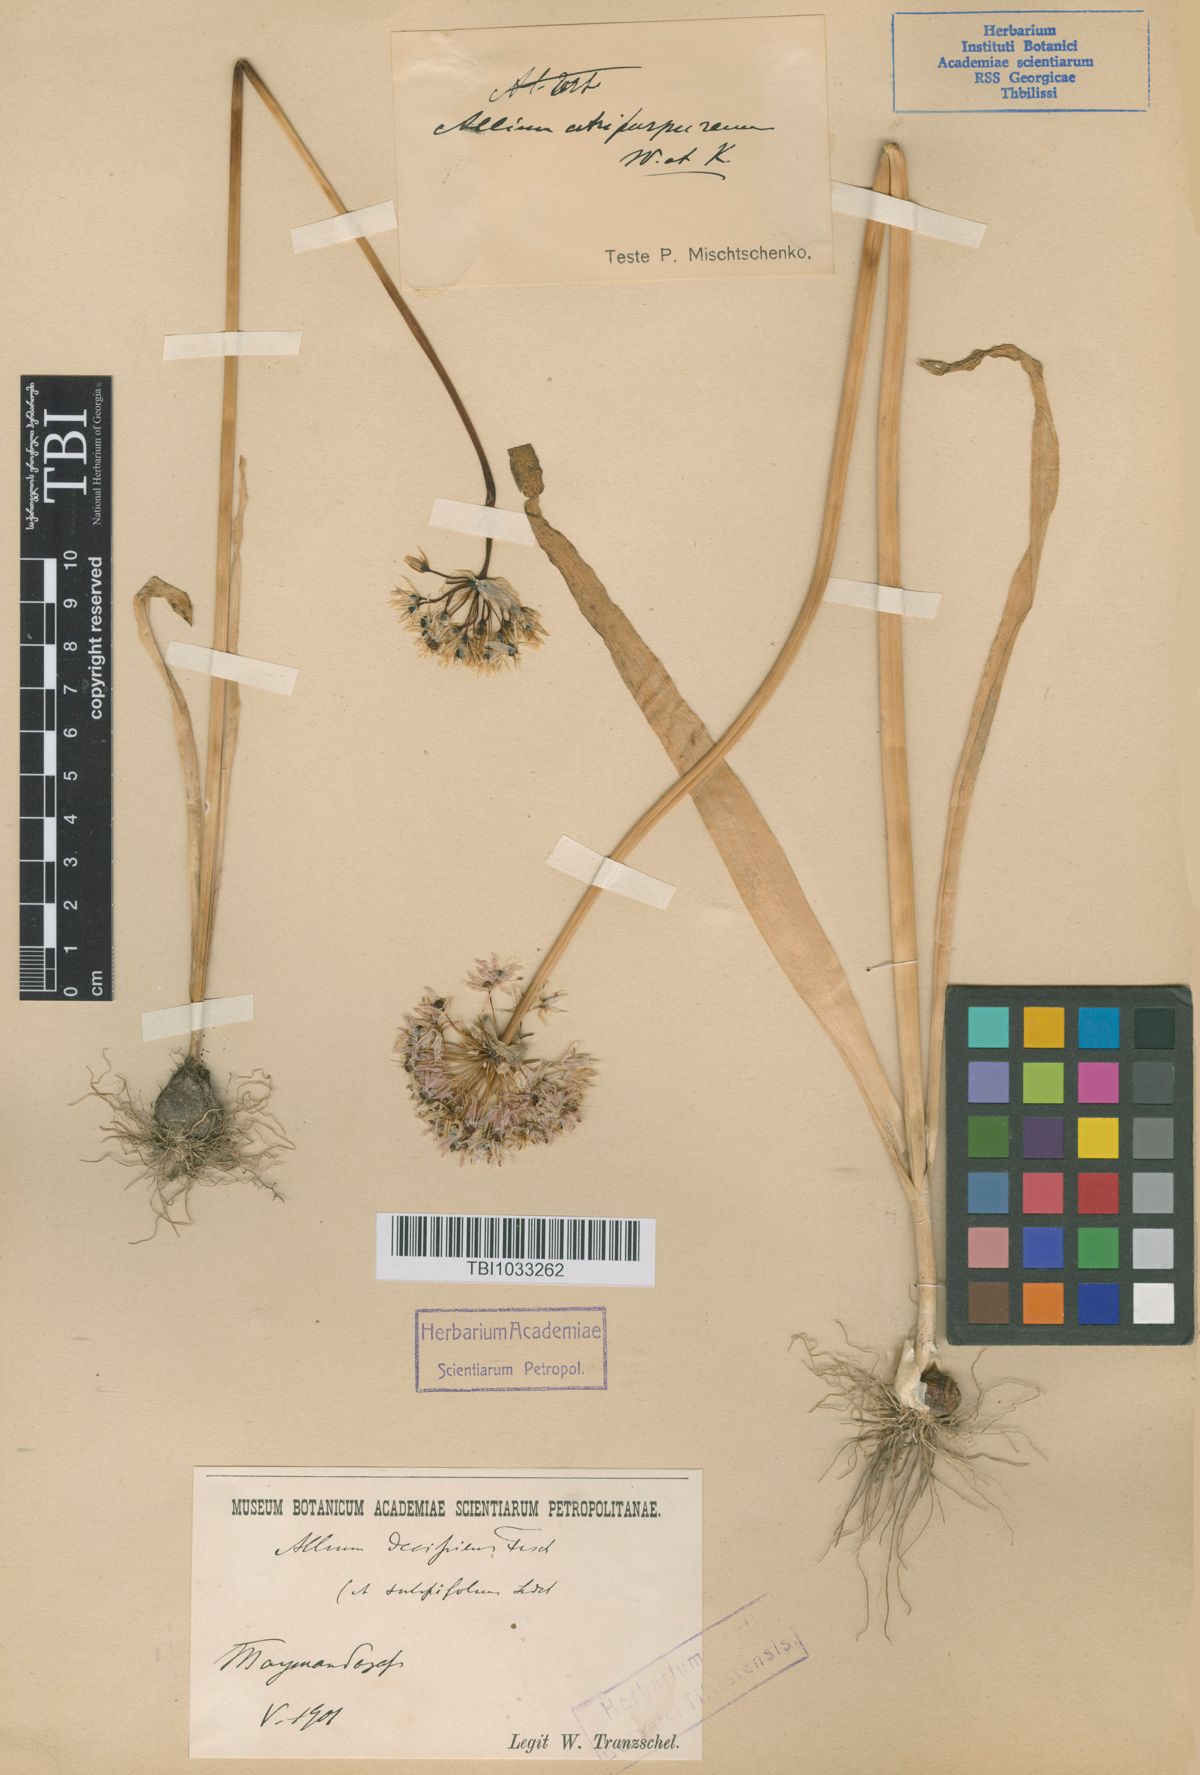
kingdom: Plantae
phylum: Tracheophyta
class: Liliopsida
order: Asparagales
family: Amaryllidaceae
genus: Allium
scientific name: Allium decipiens
